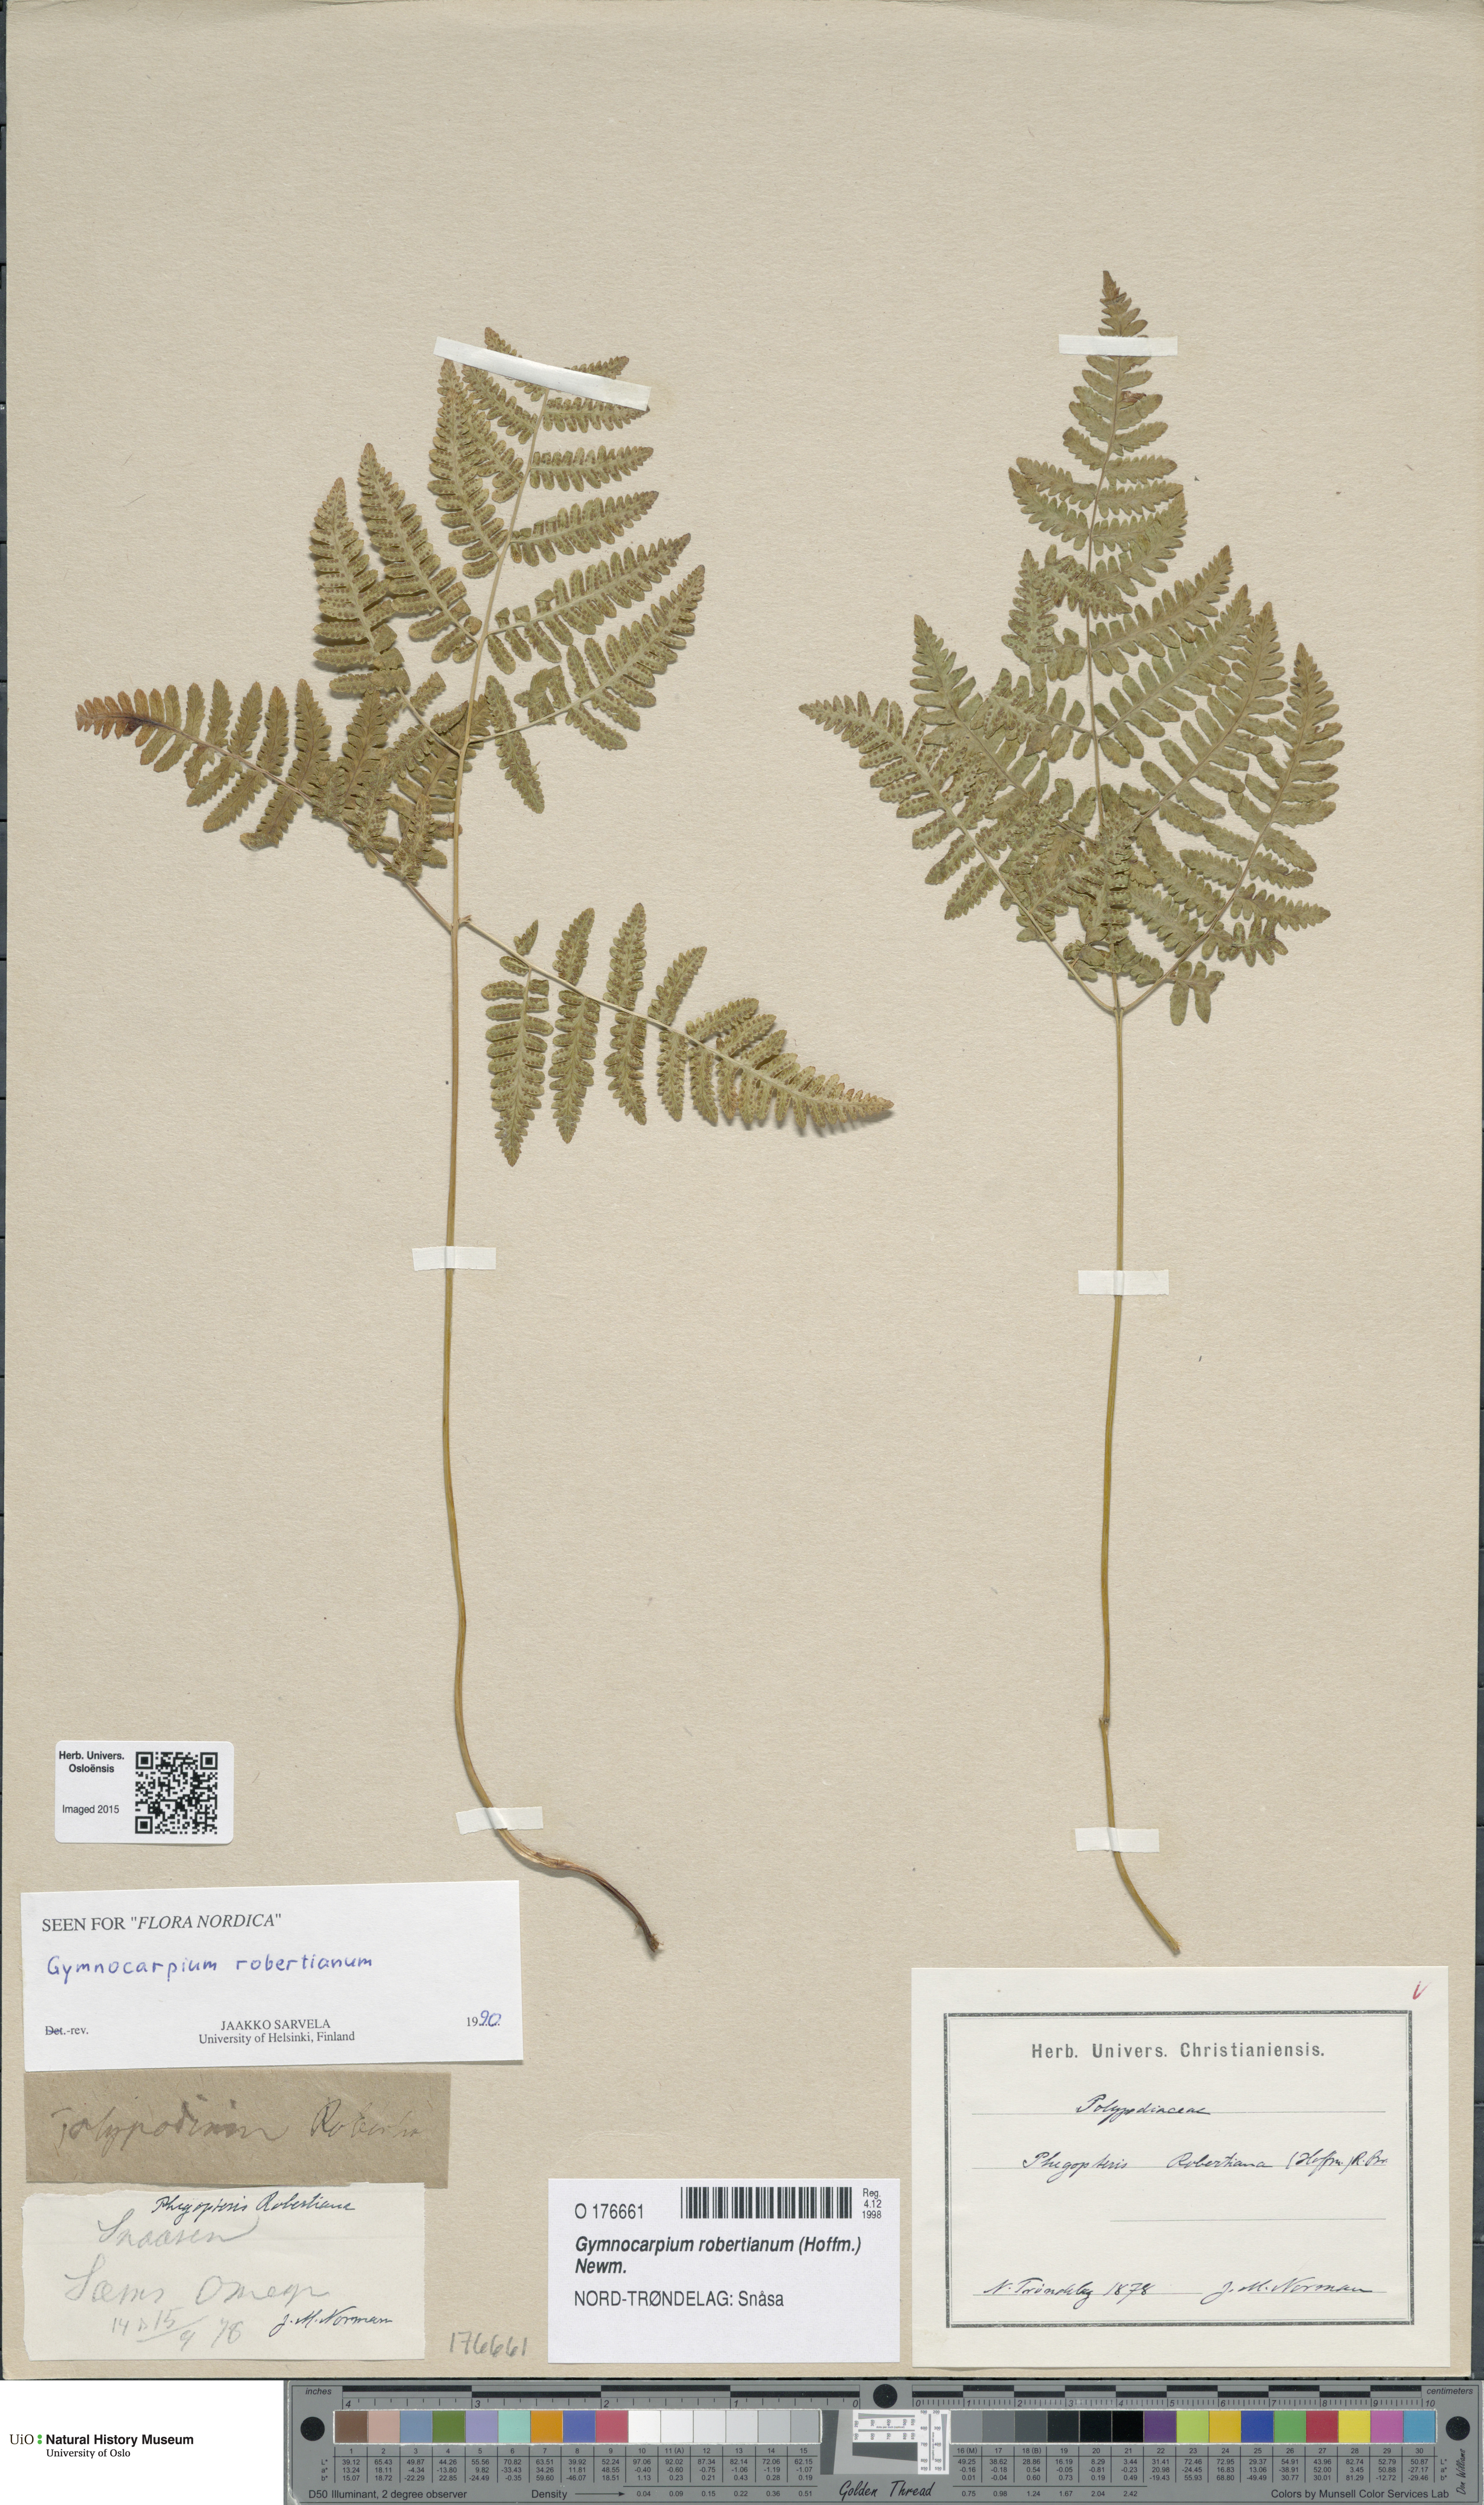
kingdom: Plantae
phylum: Tracheophyta
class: Polypodiopsida
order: Polypodiales
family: Cystopteridaceae
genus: Gymnocarpium
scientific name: Gymnocarpium robertianum
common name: Limestone fern
